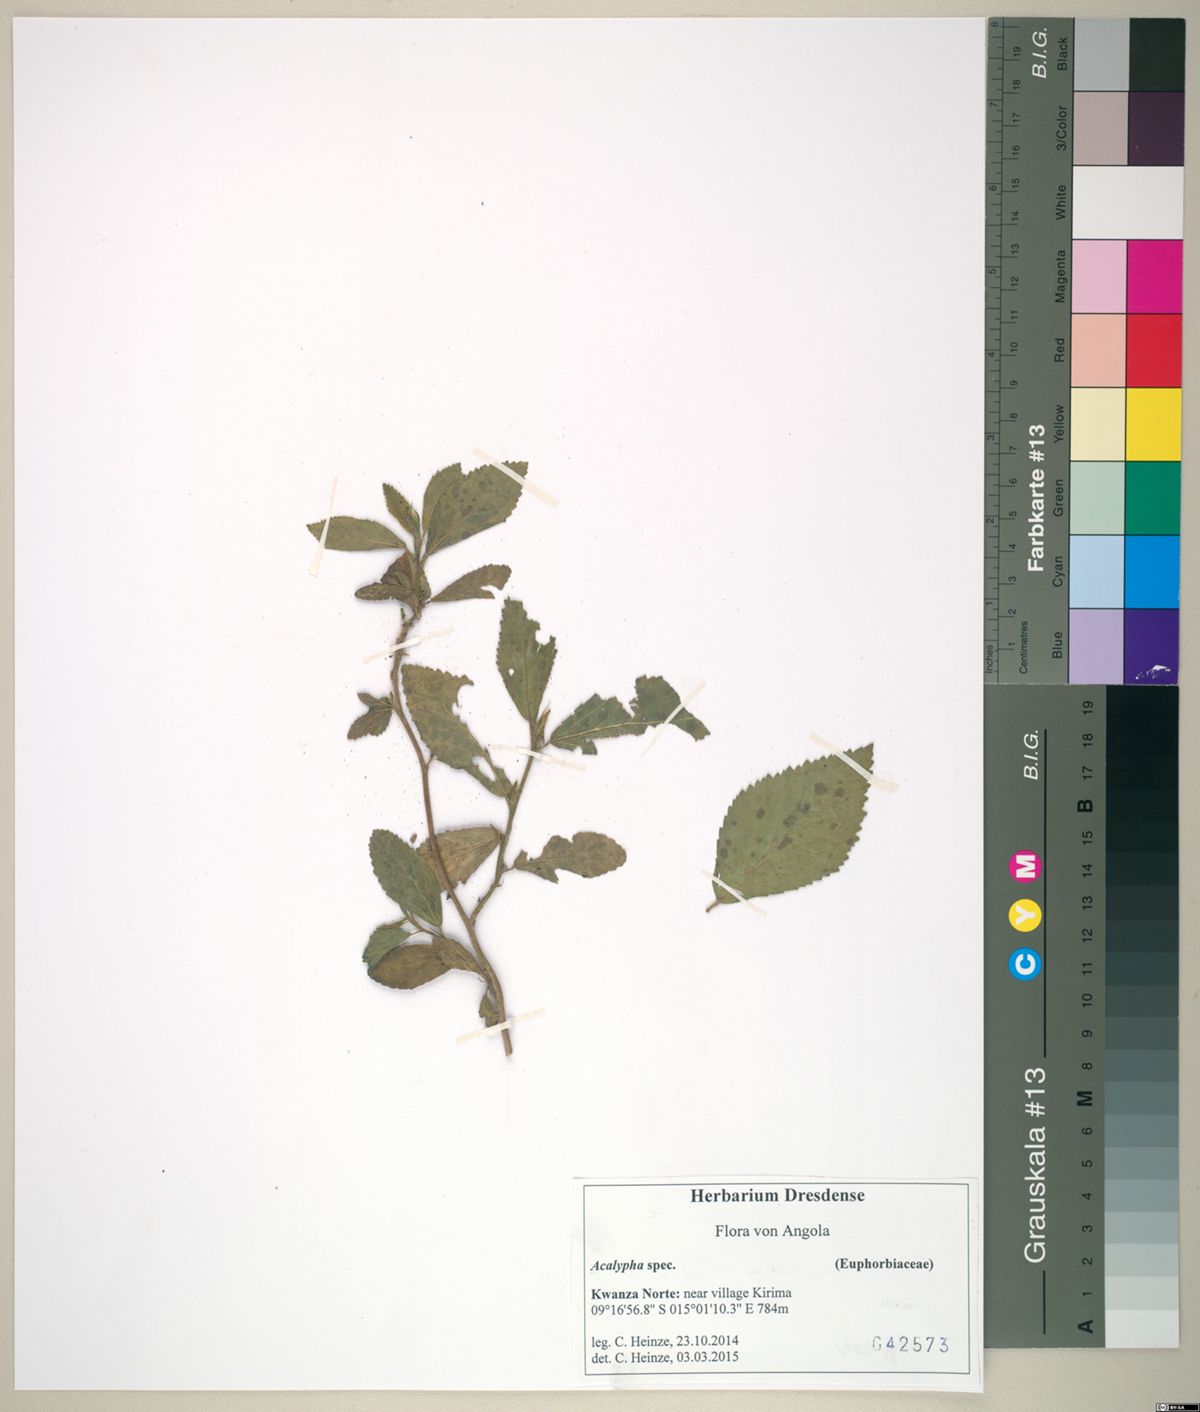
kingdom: Plantae
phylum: Tracheophyta
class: Magnoliopsida
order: Malpighiales
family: Euphorbiaceae
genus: Acalypha
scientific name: Acalypha
